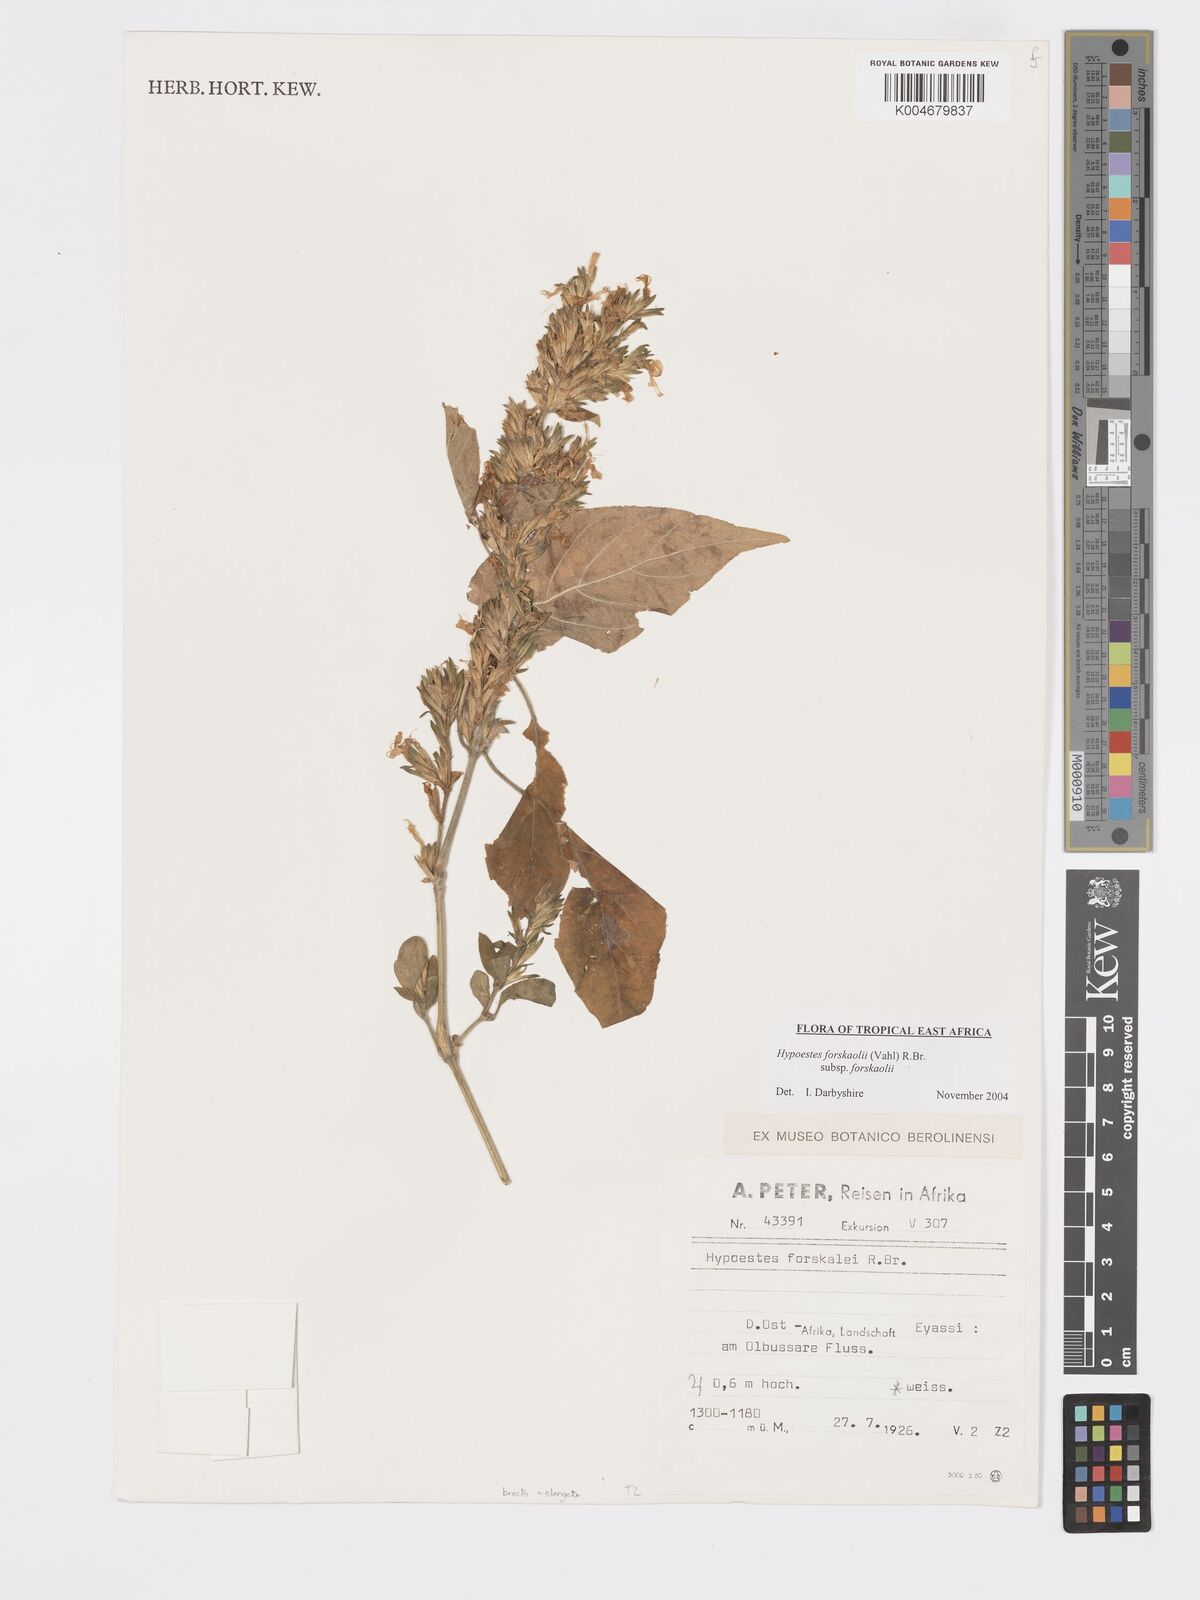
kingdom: Plantae
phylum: Tracheophyta
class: Magnoliopsida
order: Lamiales
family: Acanthaceae
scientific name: Acanthaceae
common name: Acanthaceae
